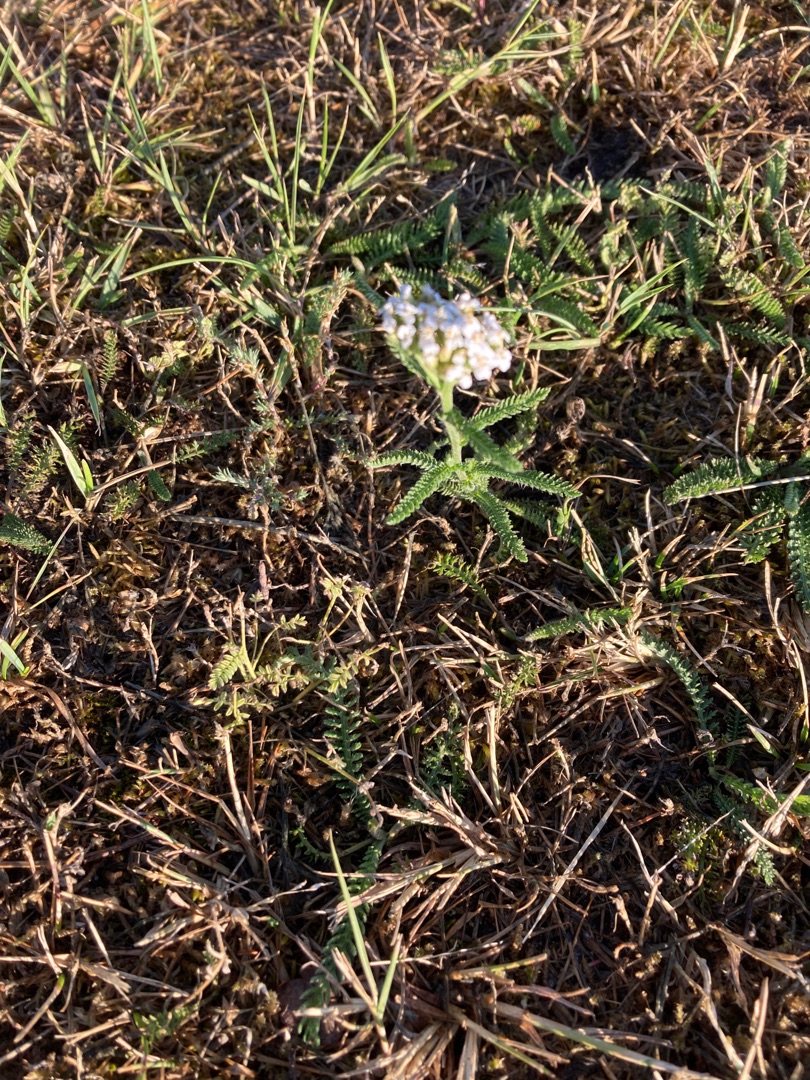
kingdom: Plantae
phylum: Tracheophyta
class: Magnoliopsida
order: Asterales
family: Asteraceae
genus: Achillea
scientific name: Achillea millefolium
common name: Almindelig røllike
